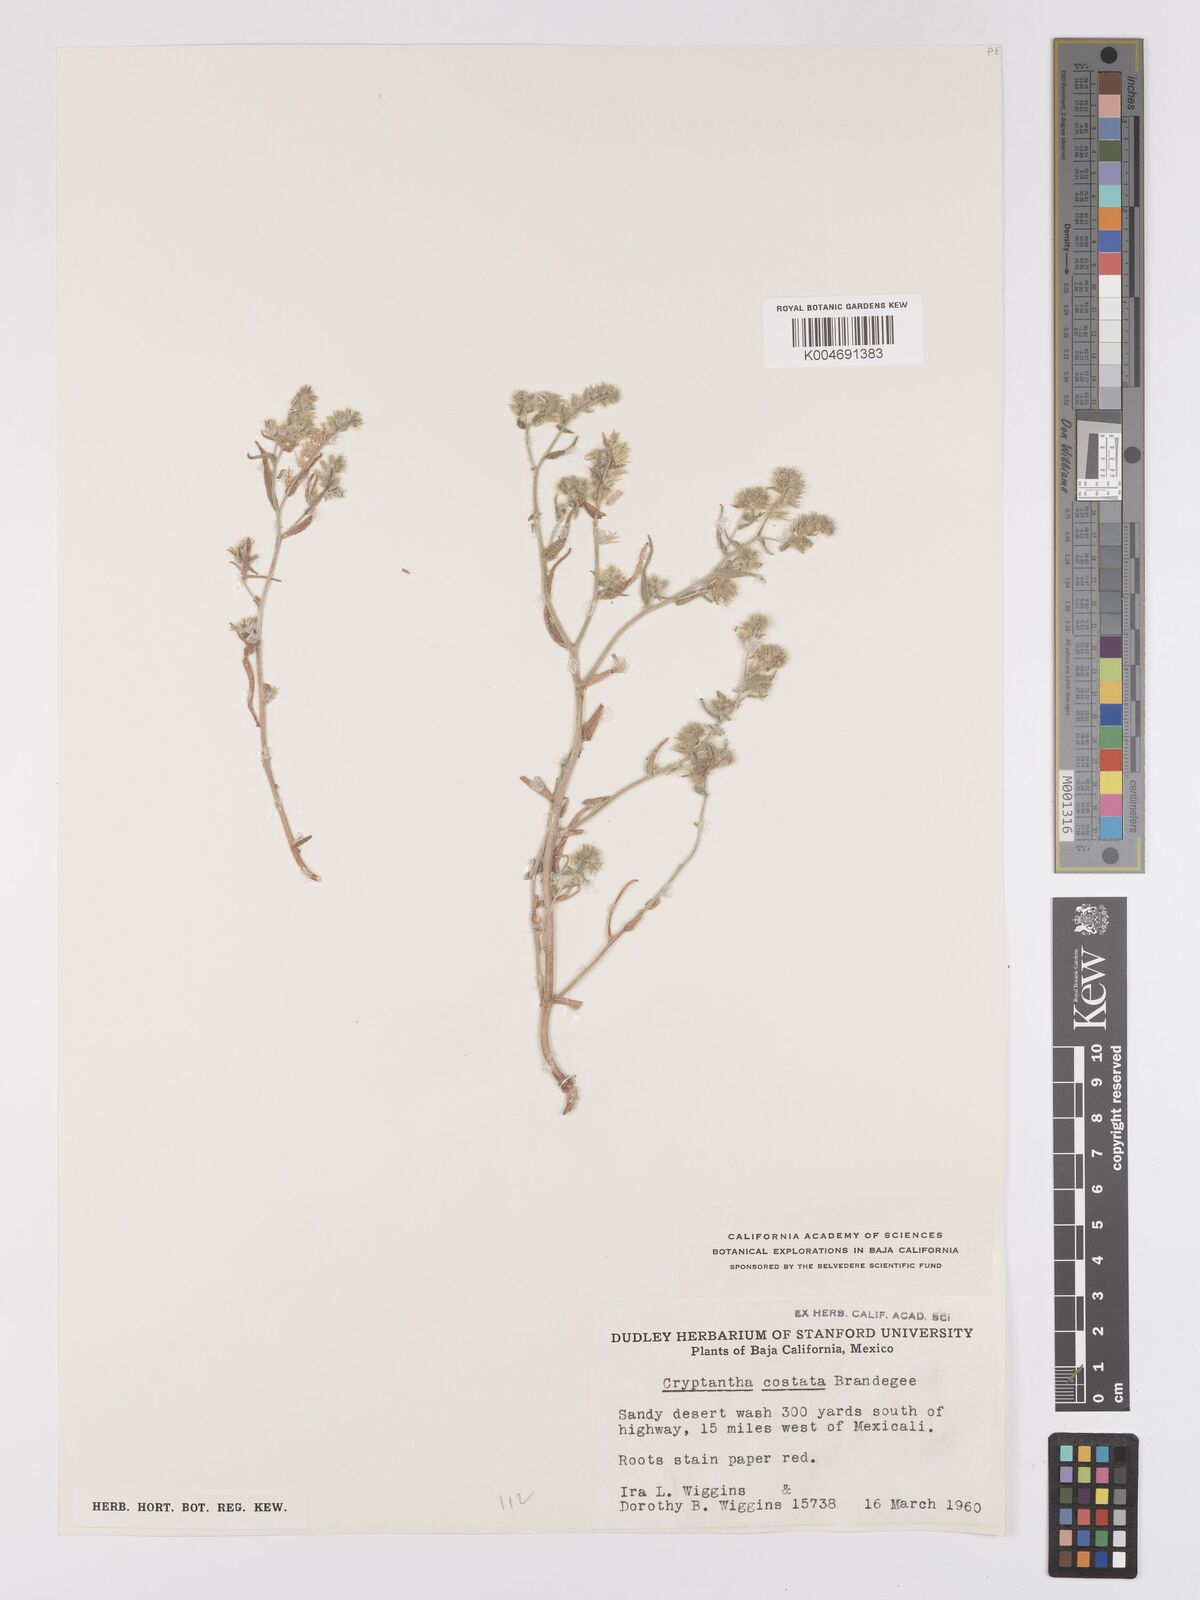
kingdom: Plantae
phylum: Tracheophyta
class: Magnoliopsida
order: Boraginales
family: Boraginaceae
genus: Johnstonella
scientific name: Johnstonella costata
